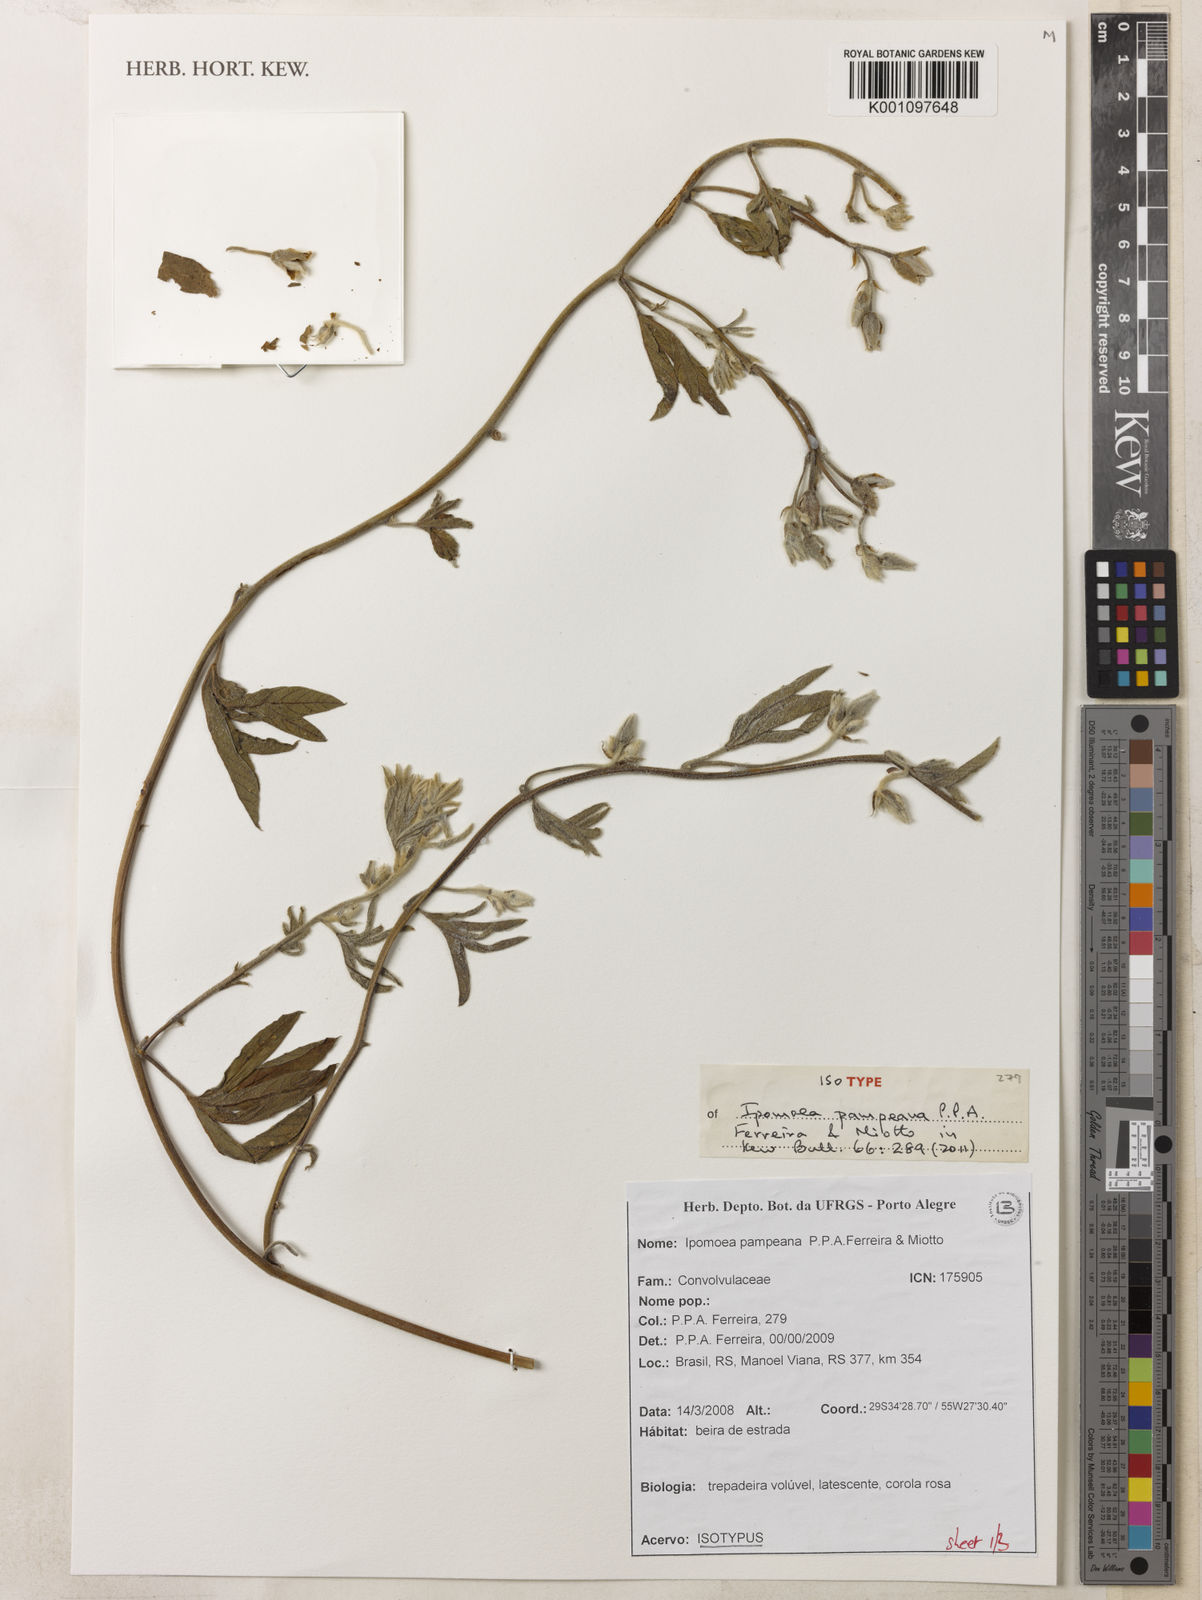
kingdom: Plantae
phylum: Tracheophyta
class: Magnoliopsida
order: Solanales
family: Convolvulaceae
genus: Ipomoea
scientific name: Ipomoea pampeana
